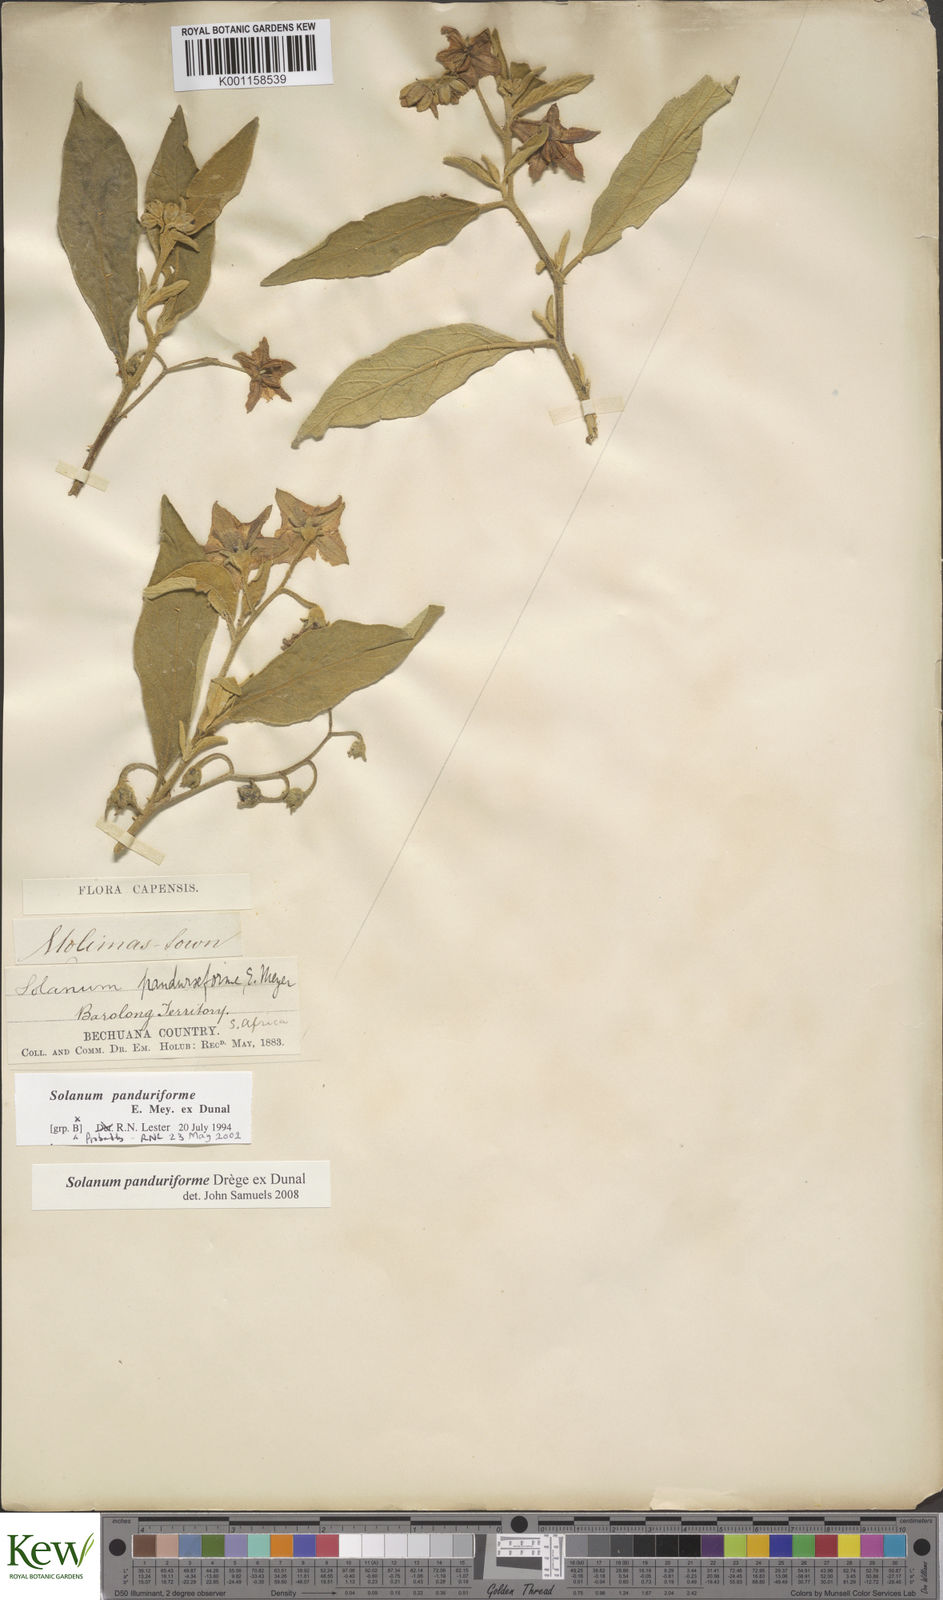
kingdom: Plantae
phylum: Tracheophyta
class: Magnoliopsida
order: Solanales
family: Solanaceae
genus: Solanum
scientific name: Solanum campylacanthum
